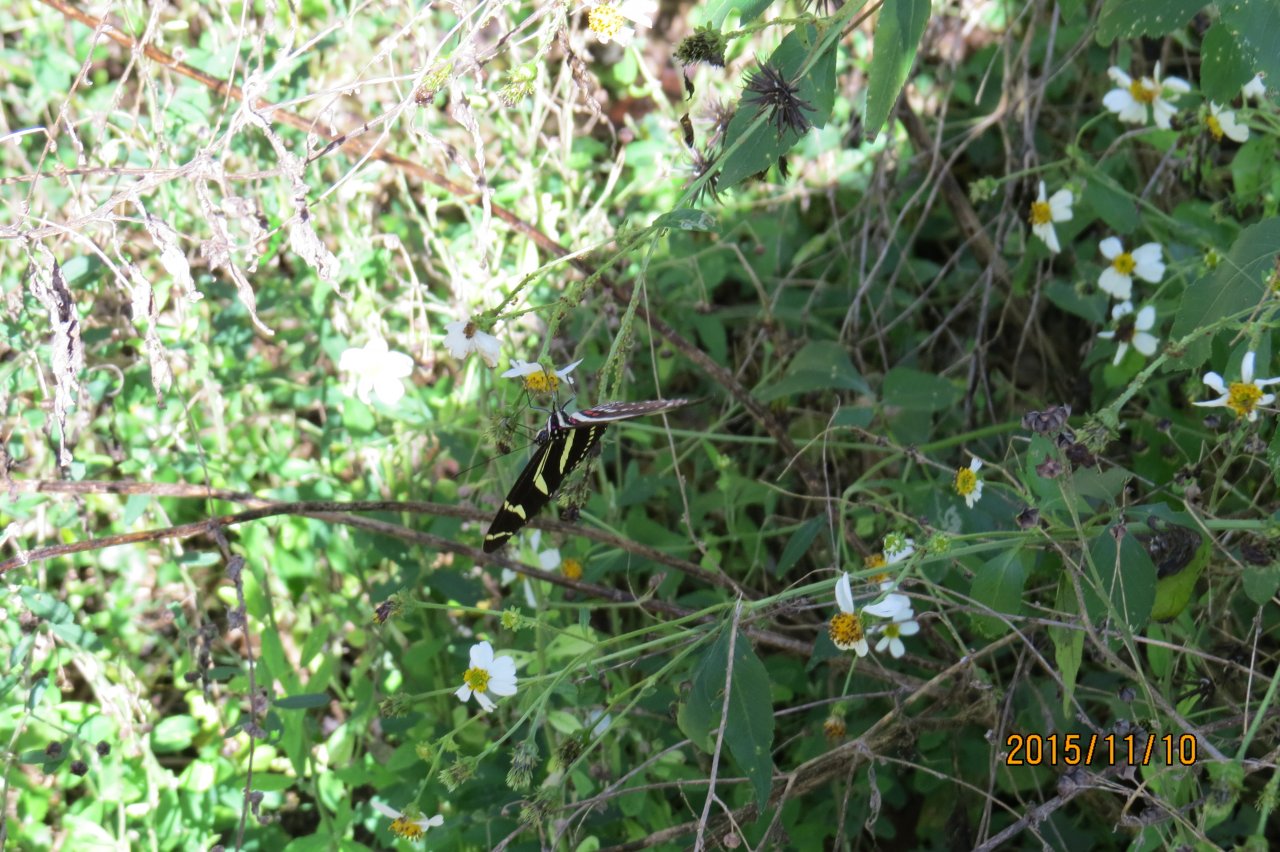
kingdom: Animalia
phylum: Arthropoda
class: Insecta
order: Lepidoptera
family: Nymphalidae
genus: Heliconius
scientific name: Heliconius charithonia
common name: Zebra Longwing
